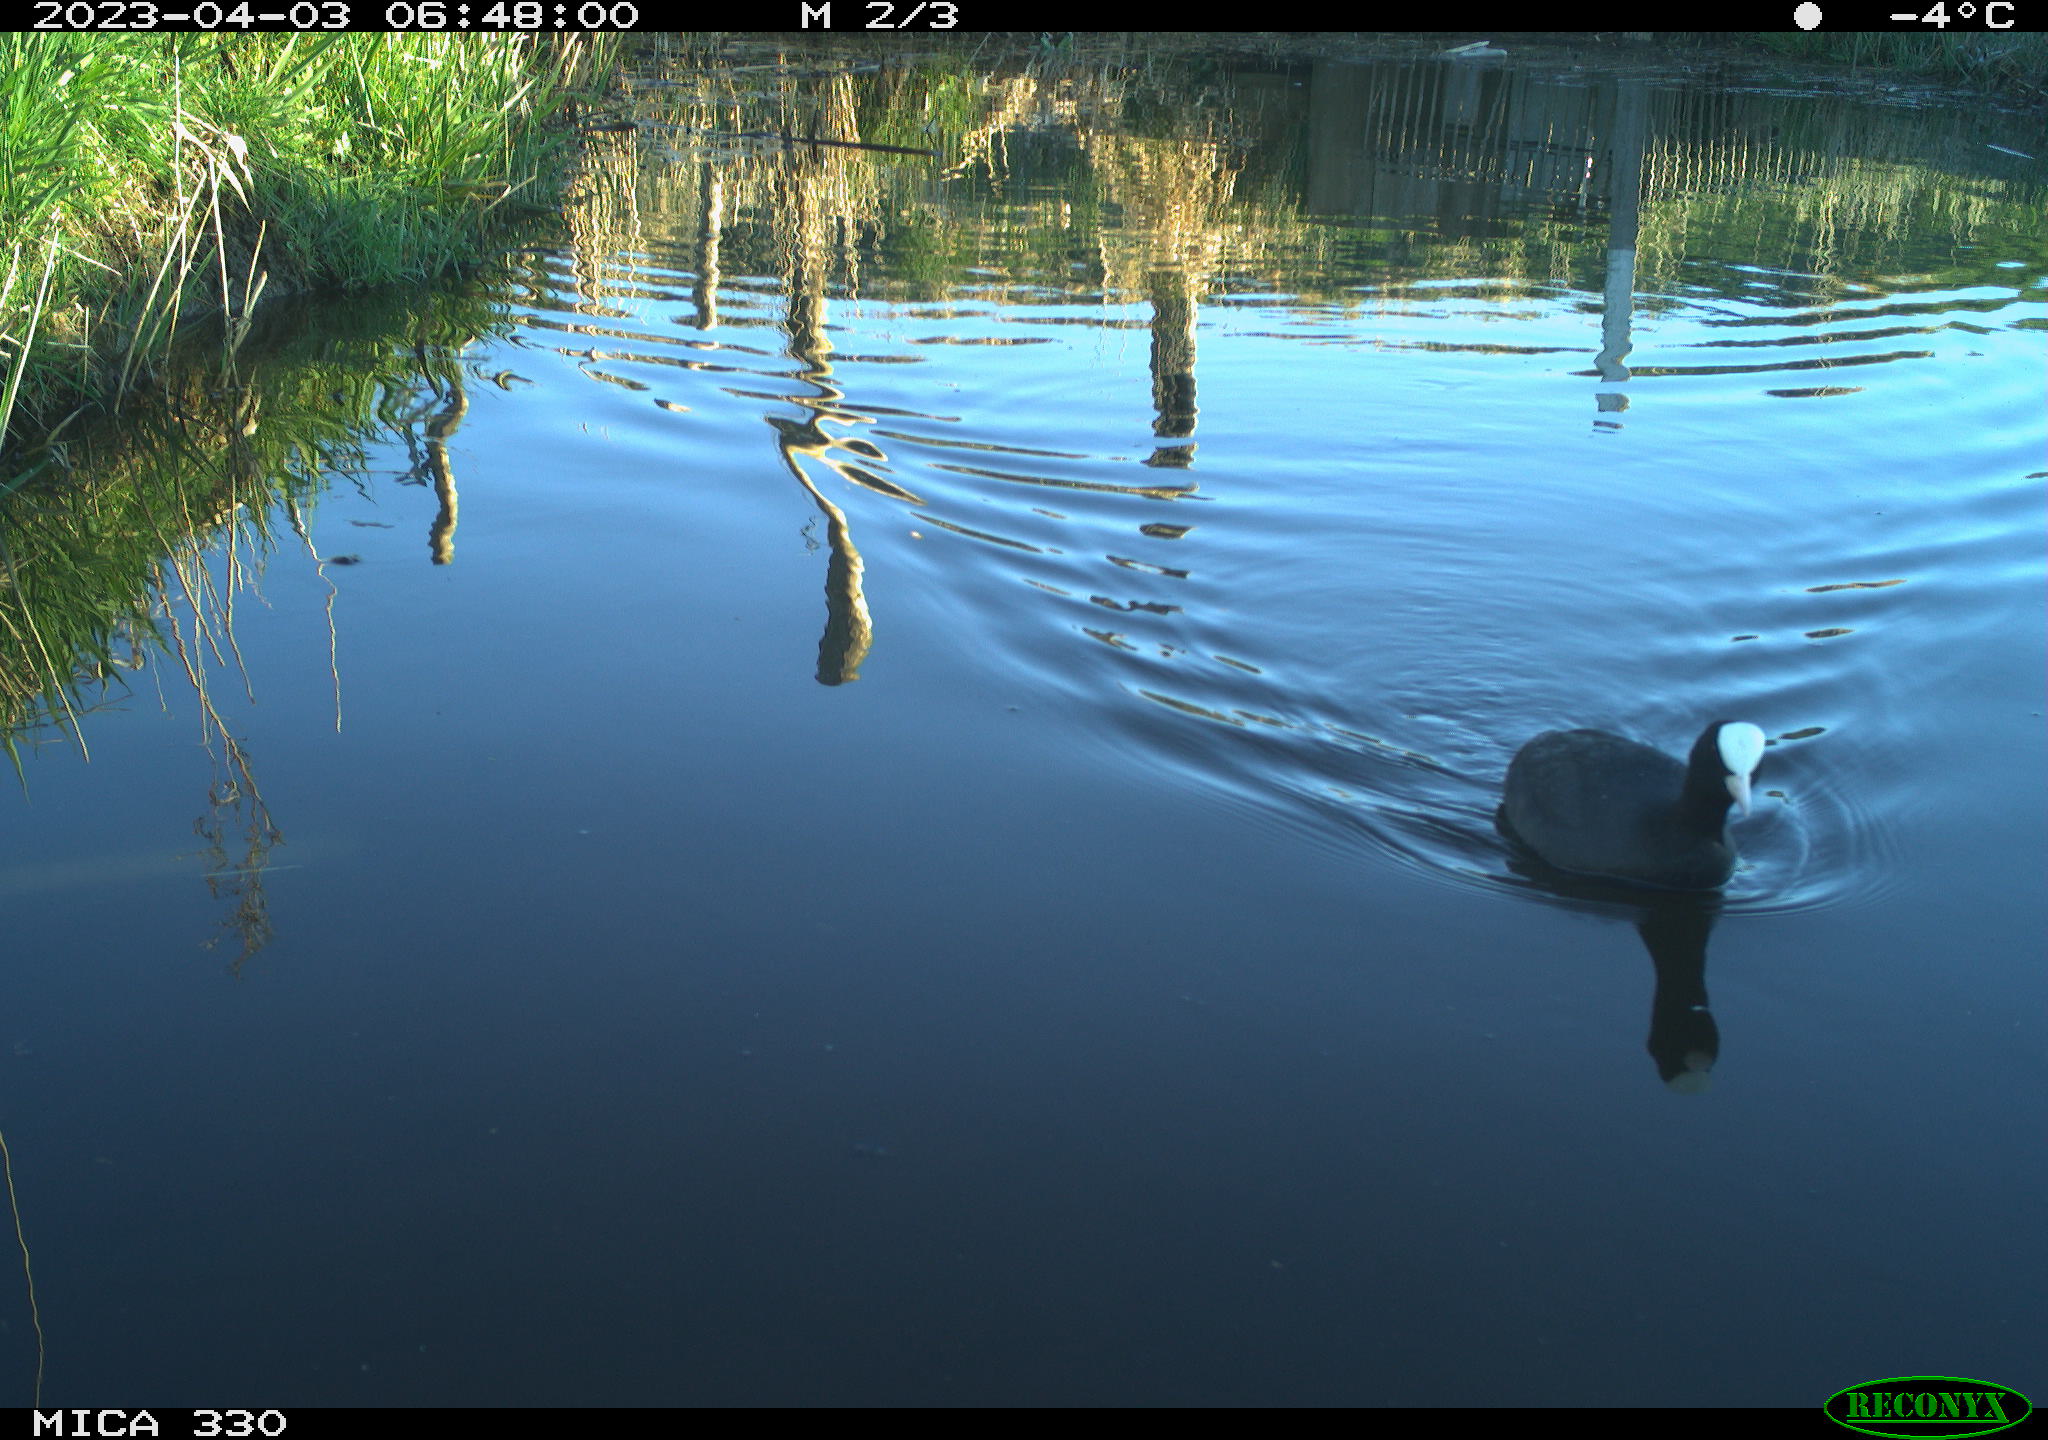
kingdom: Animalia
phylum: Chordata
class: Aves
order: Gruiformes
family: Rallidae
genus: Fulica
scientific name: Fulica atra
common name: Eurasian coot
